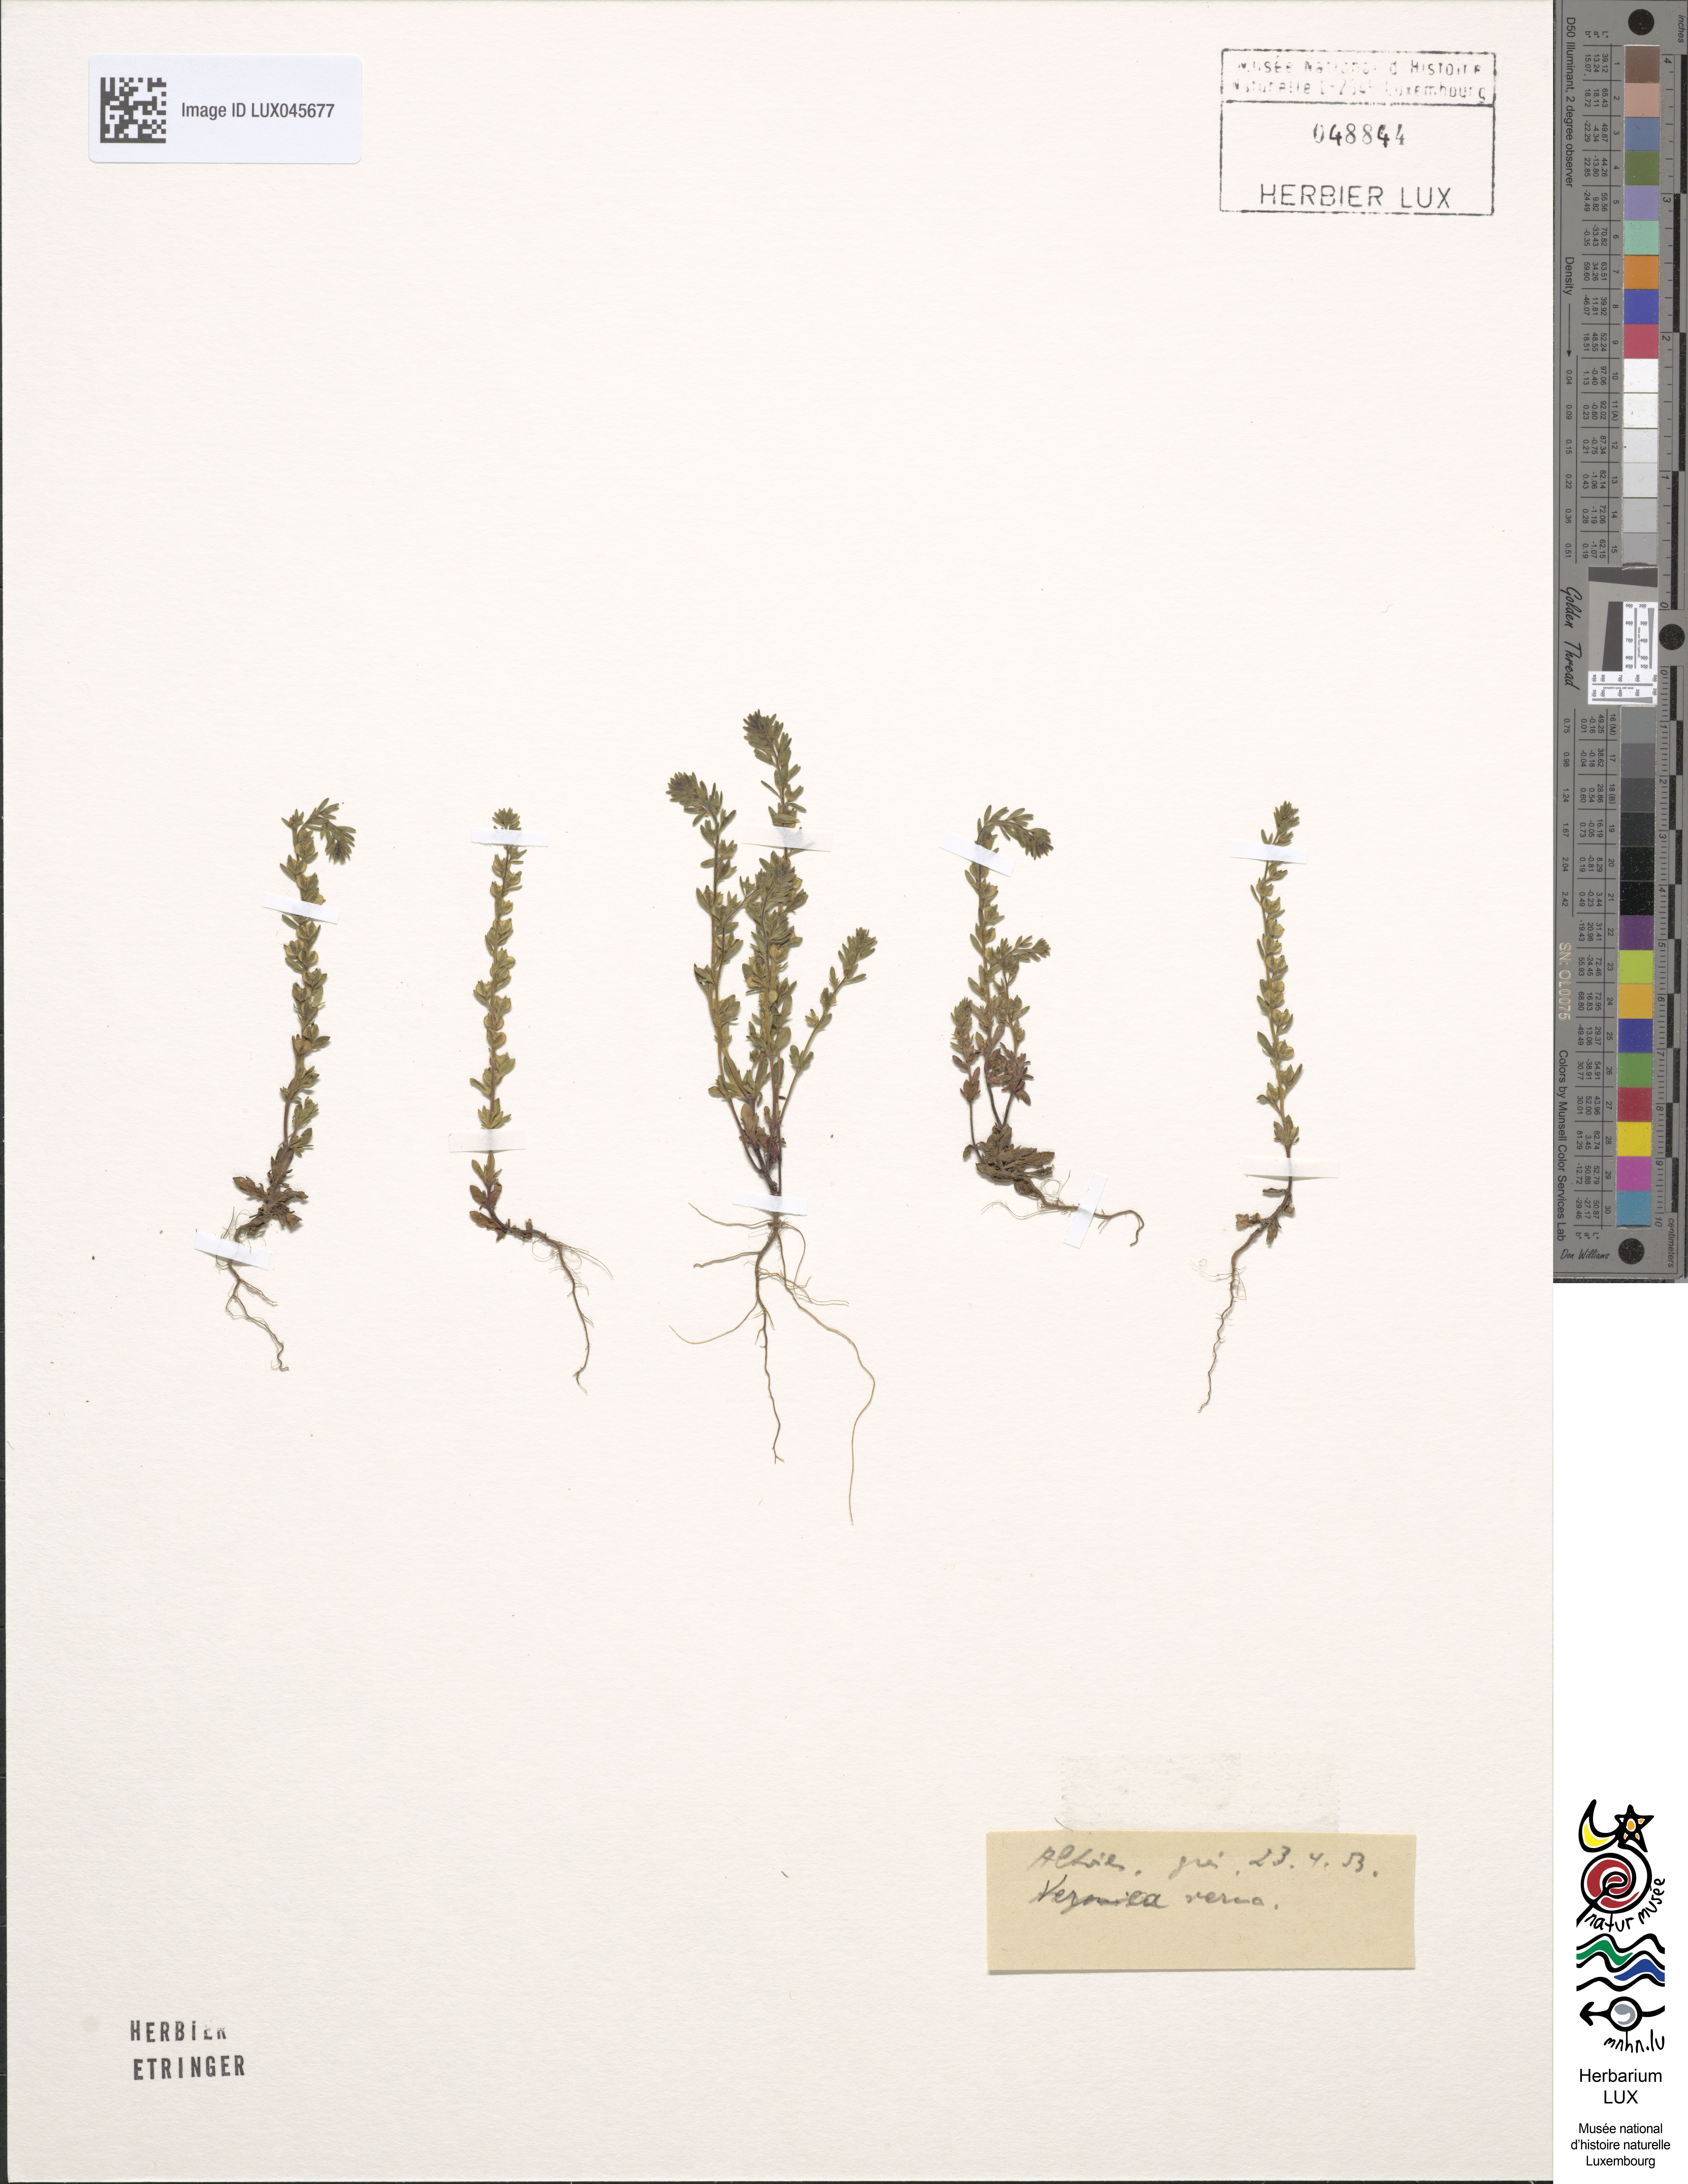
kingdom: Plantae
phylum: Tracheophyta
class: Magnoliopsida
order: Lamiales
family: Plantaginaceae
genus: Veronica
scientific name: Veronica verna
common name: Spring speedwell
